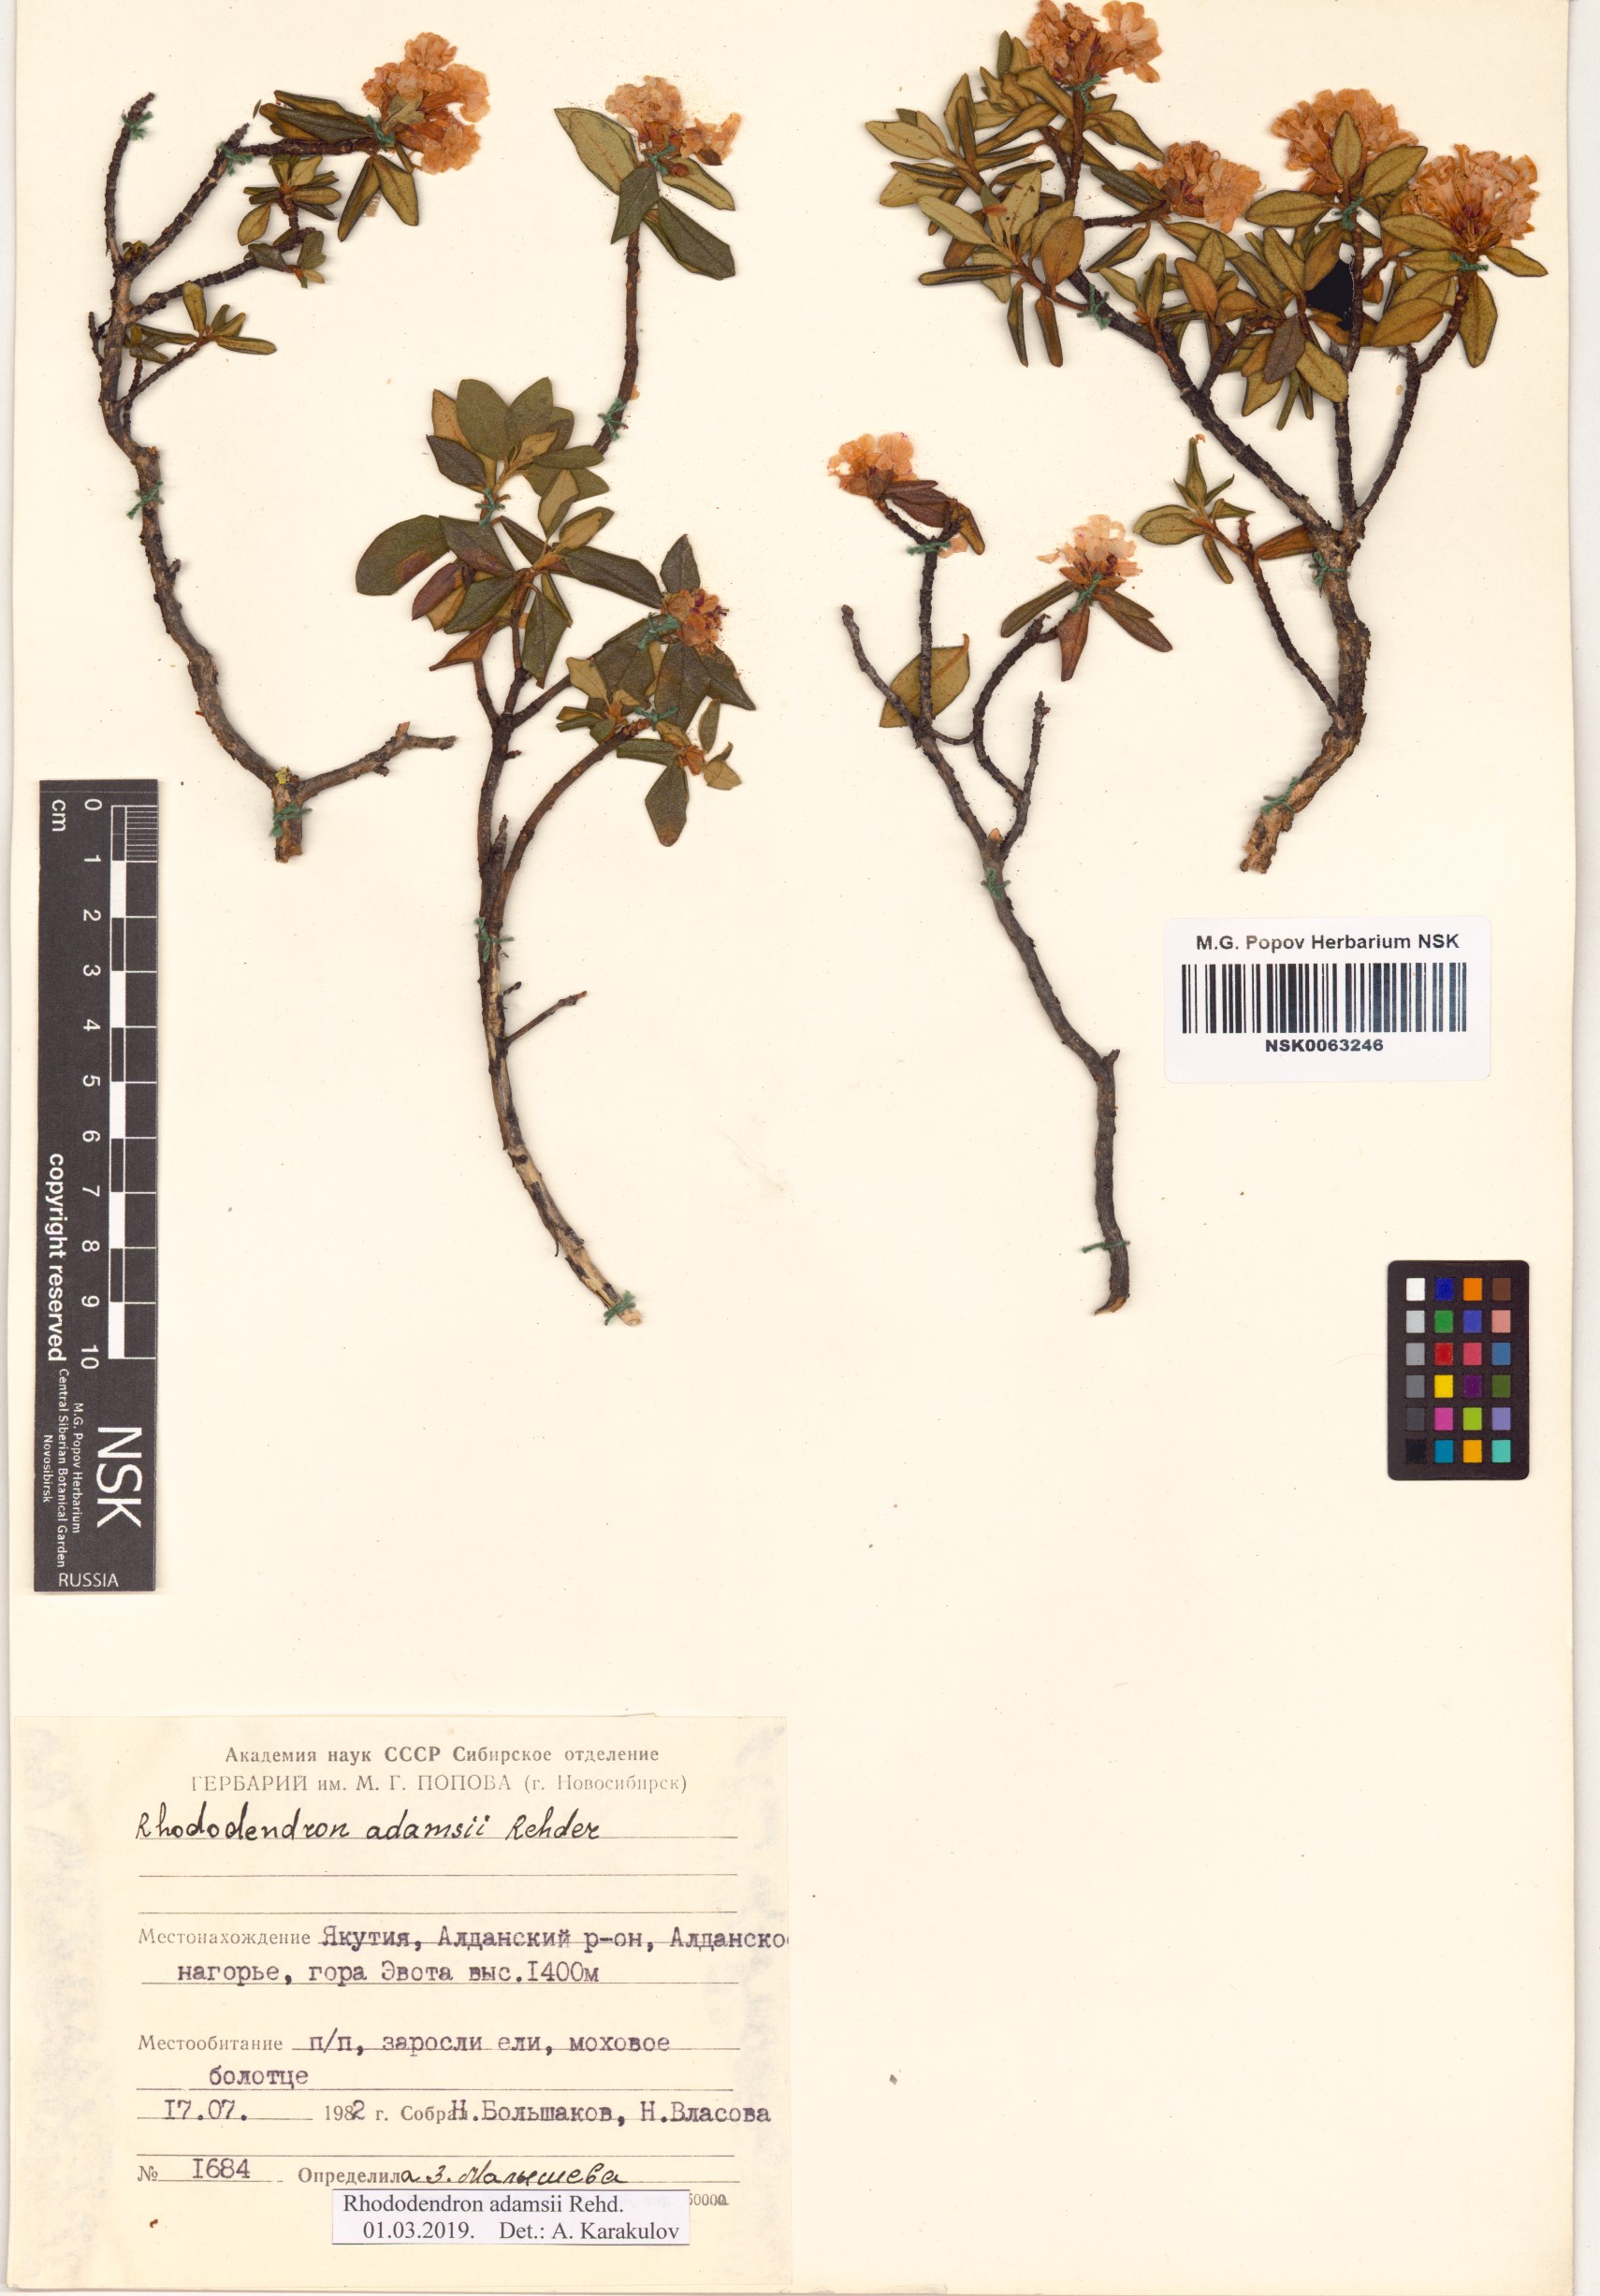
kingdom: Plantae
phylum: Tracheophyta
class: Magnoliopsida
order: Ericales
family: Ericaceae
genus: Rhododendron
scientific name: Rhododendron adamsii
